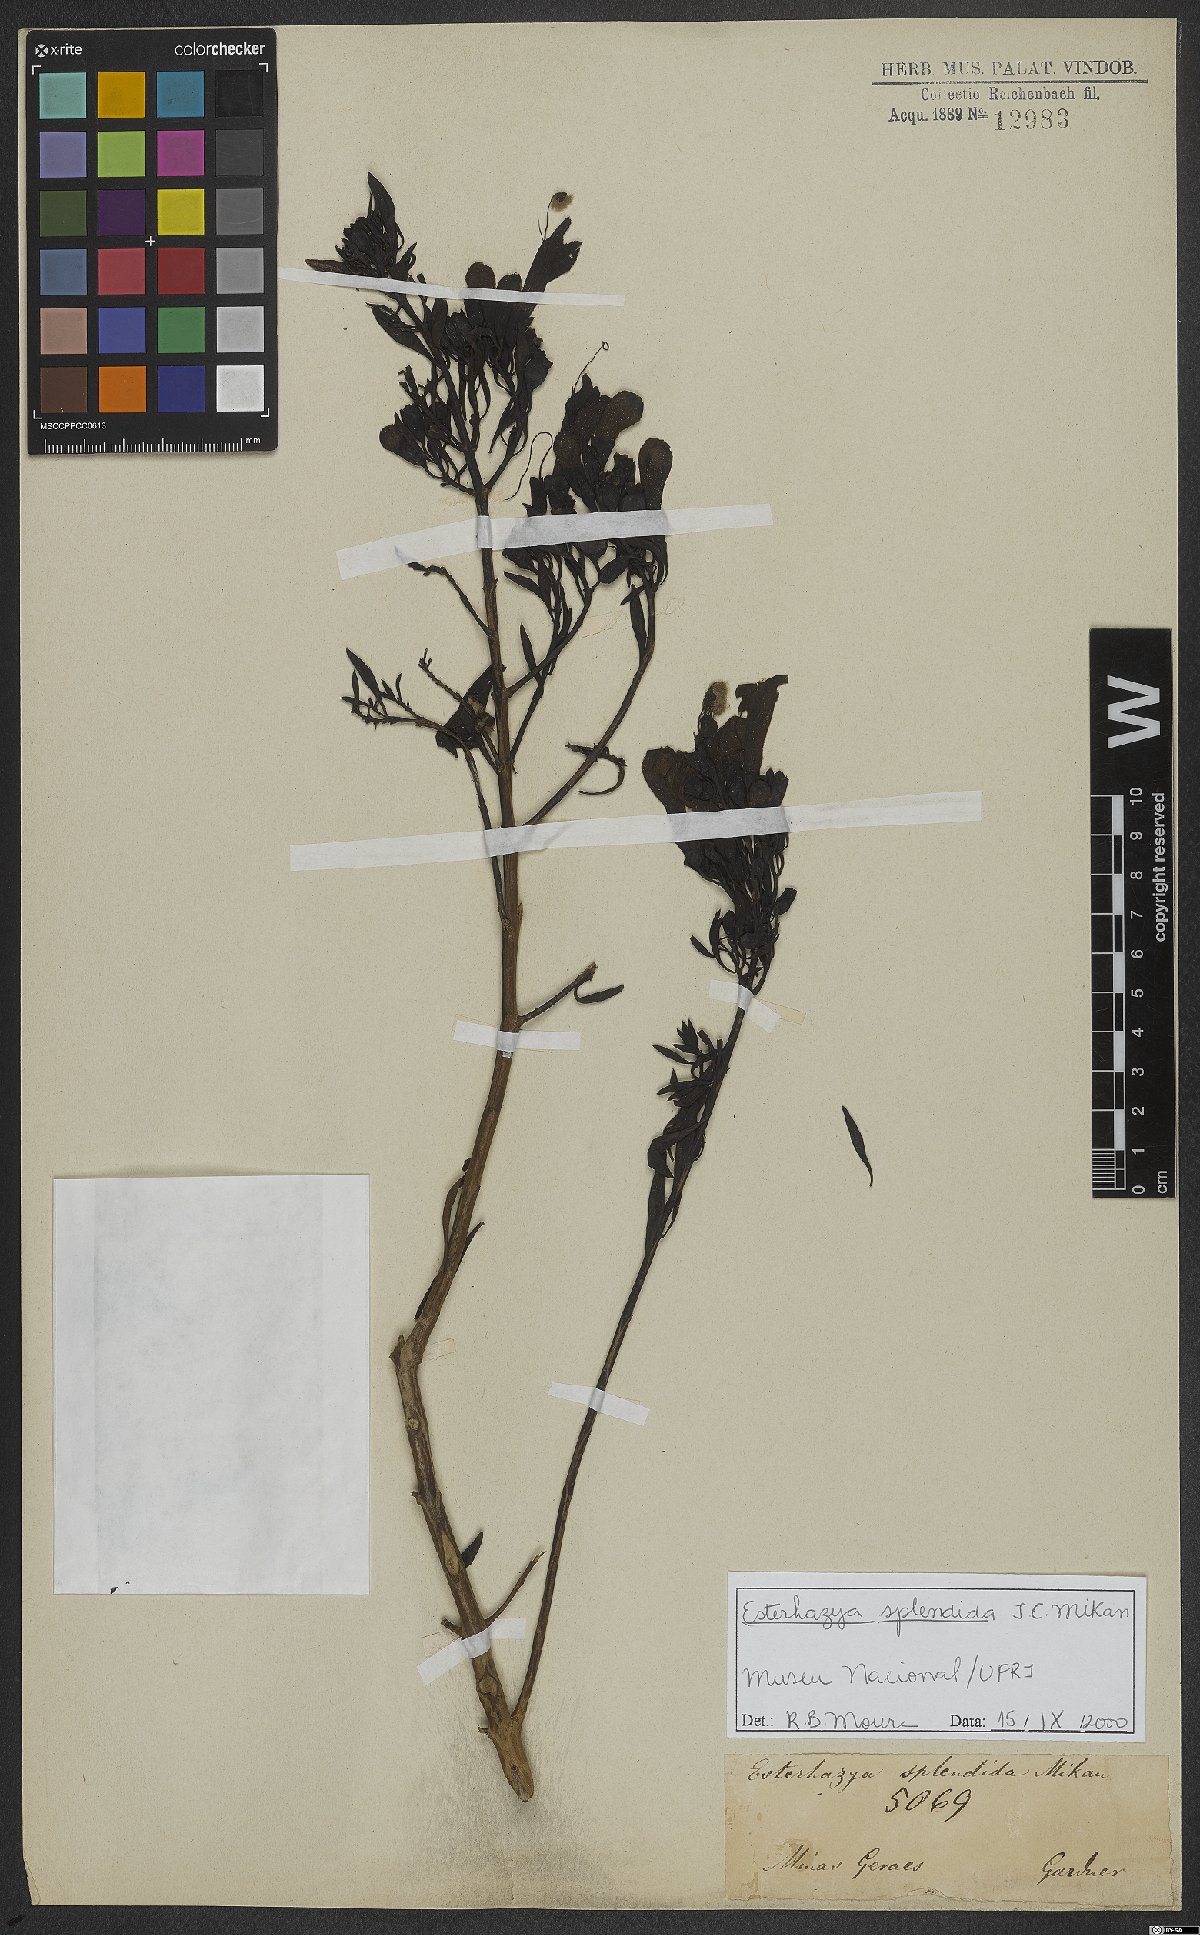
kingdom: Plantae
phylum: Tracheophyta
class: Magnoliopsida
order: Lamiales
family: Orobanchaceae
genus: Esterhazya
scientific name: Esterhazya splendida
